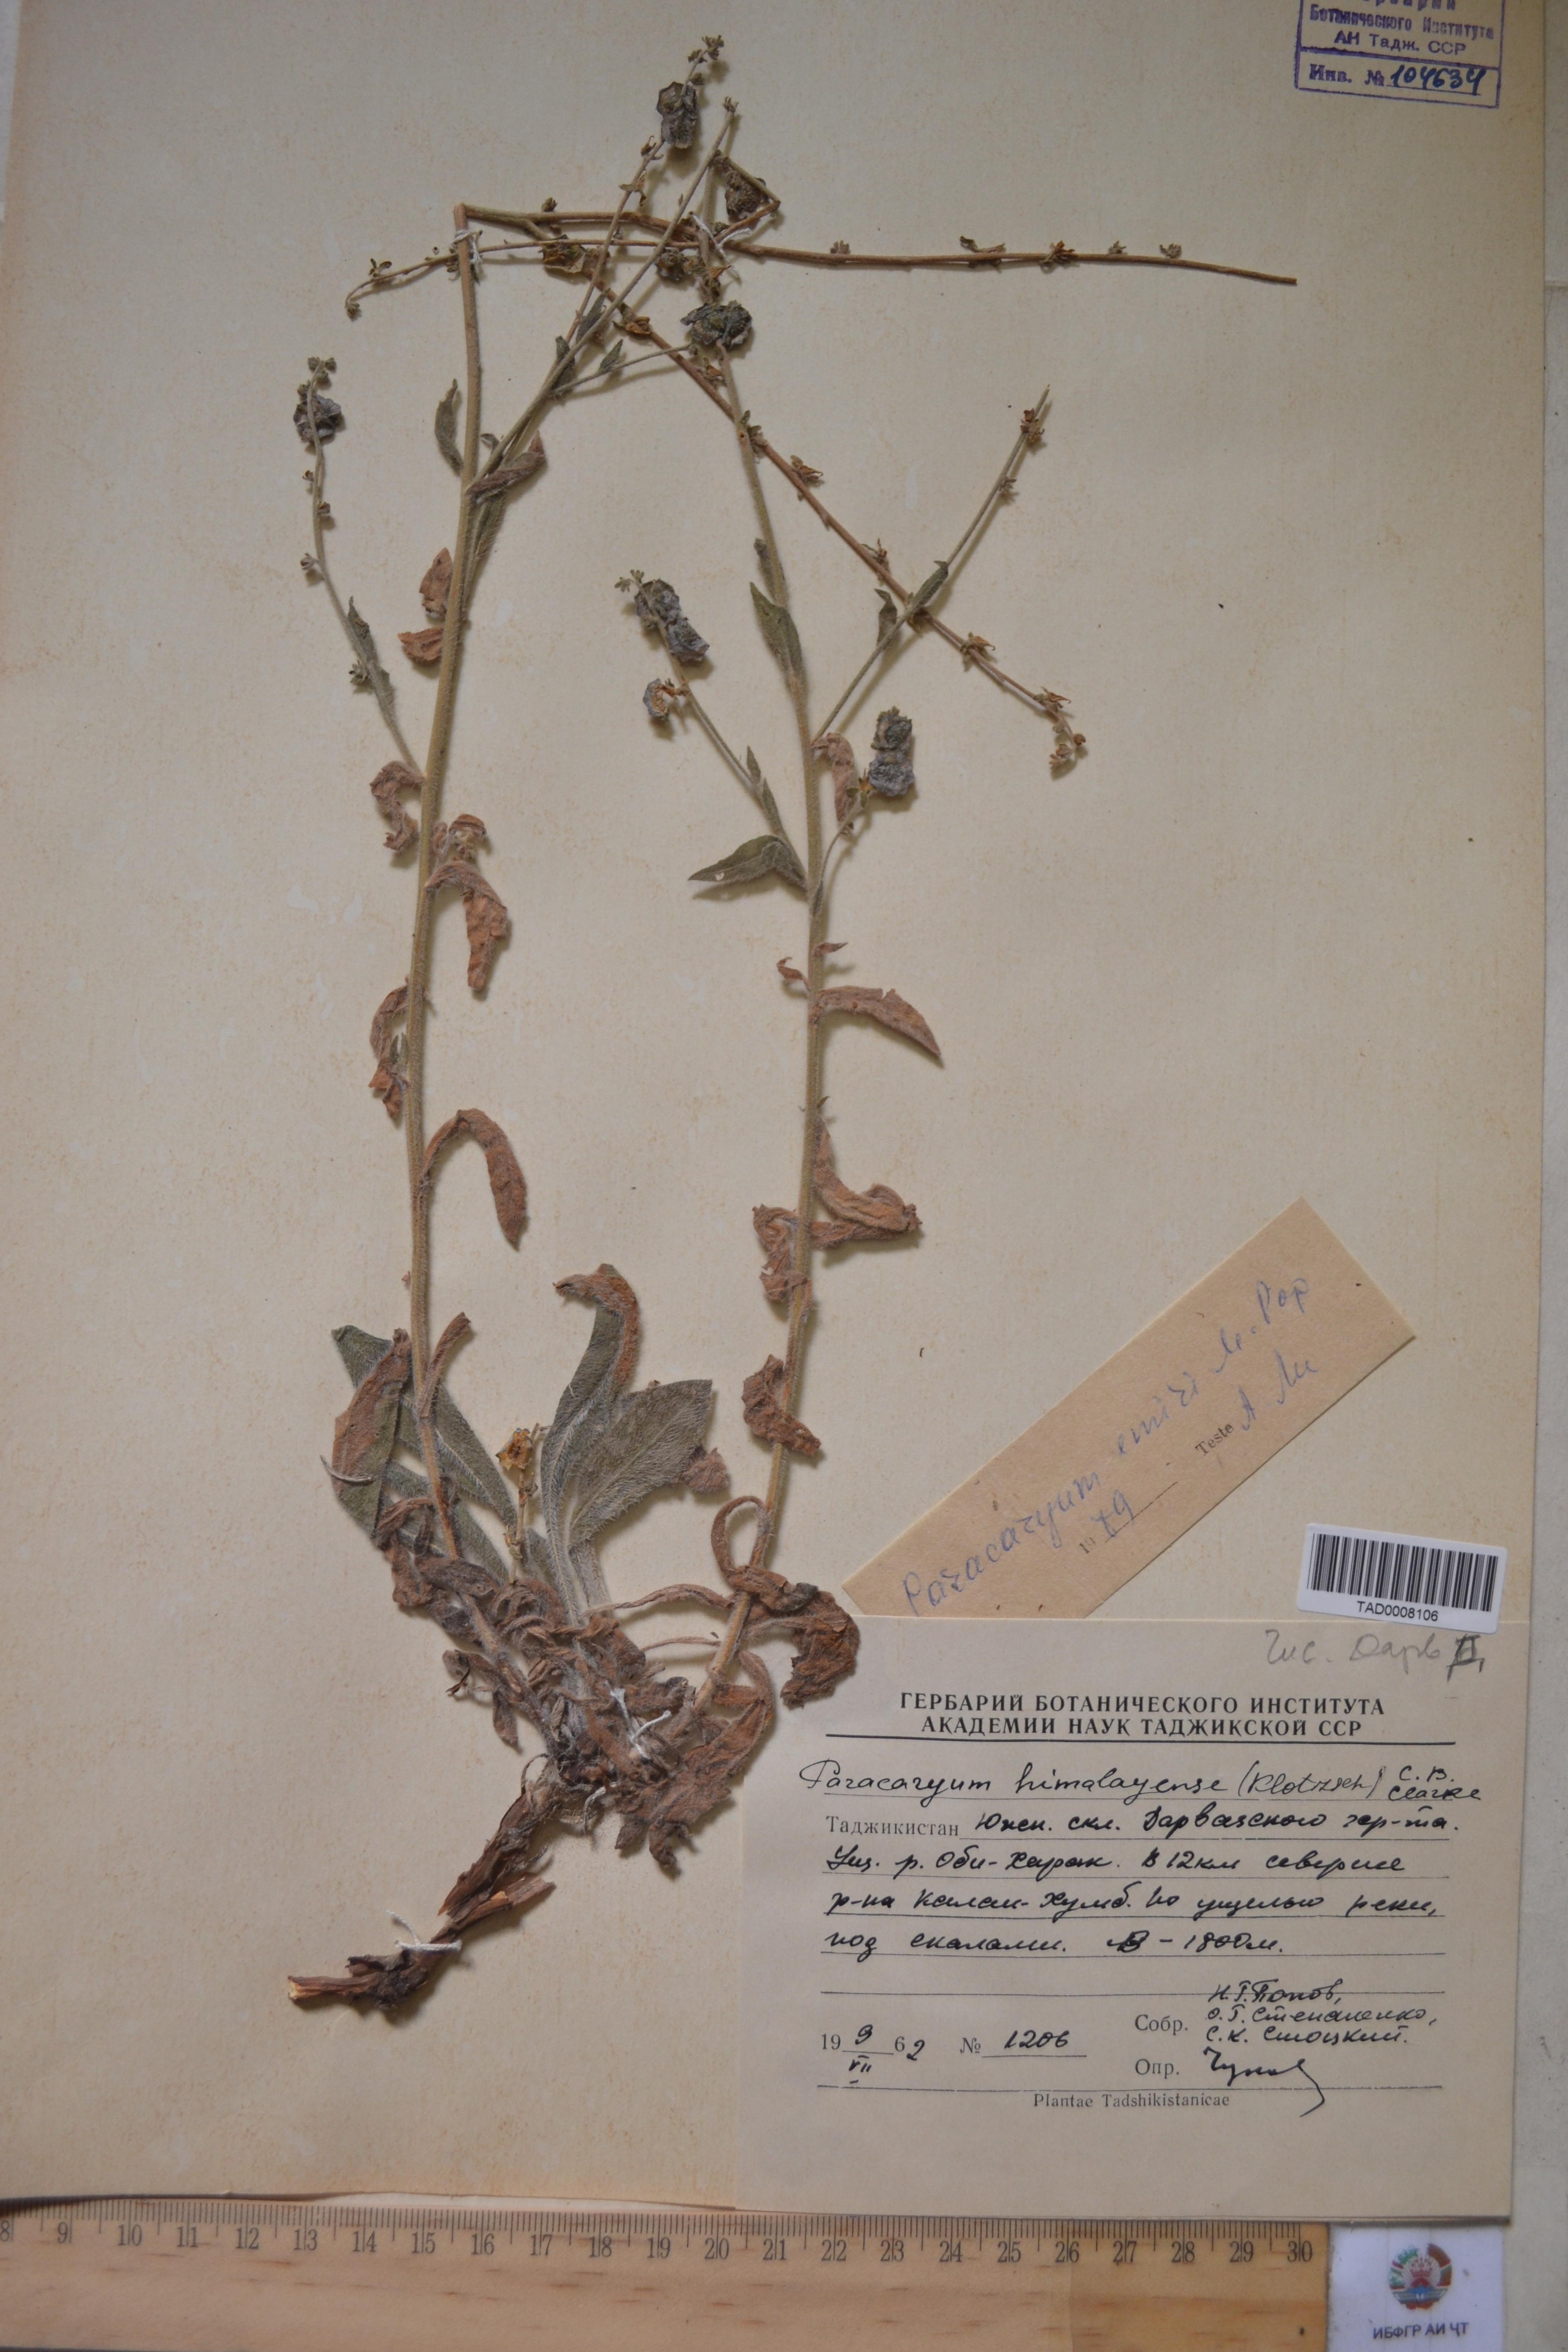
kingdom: Plantae
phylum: Tracheophyta
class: Magnoliopsida
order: Boraginales
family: Boraginaceae
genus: Paracaryum
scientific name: Paracaryum himalayense
